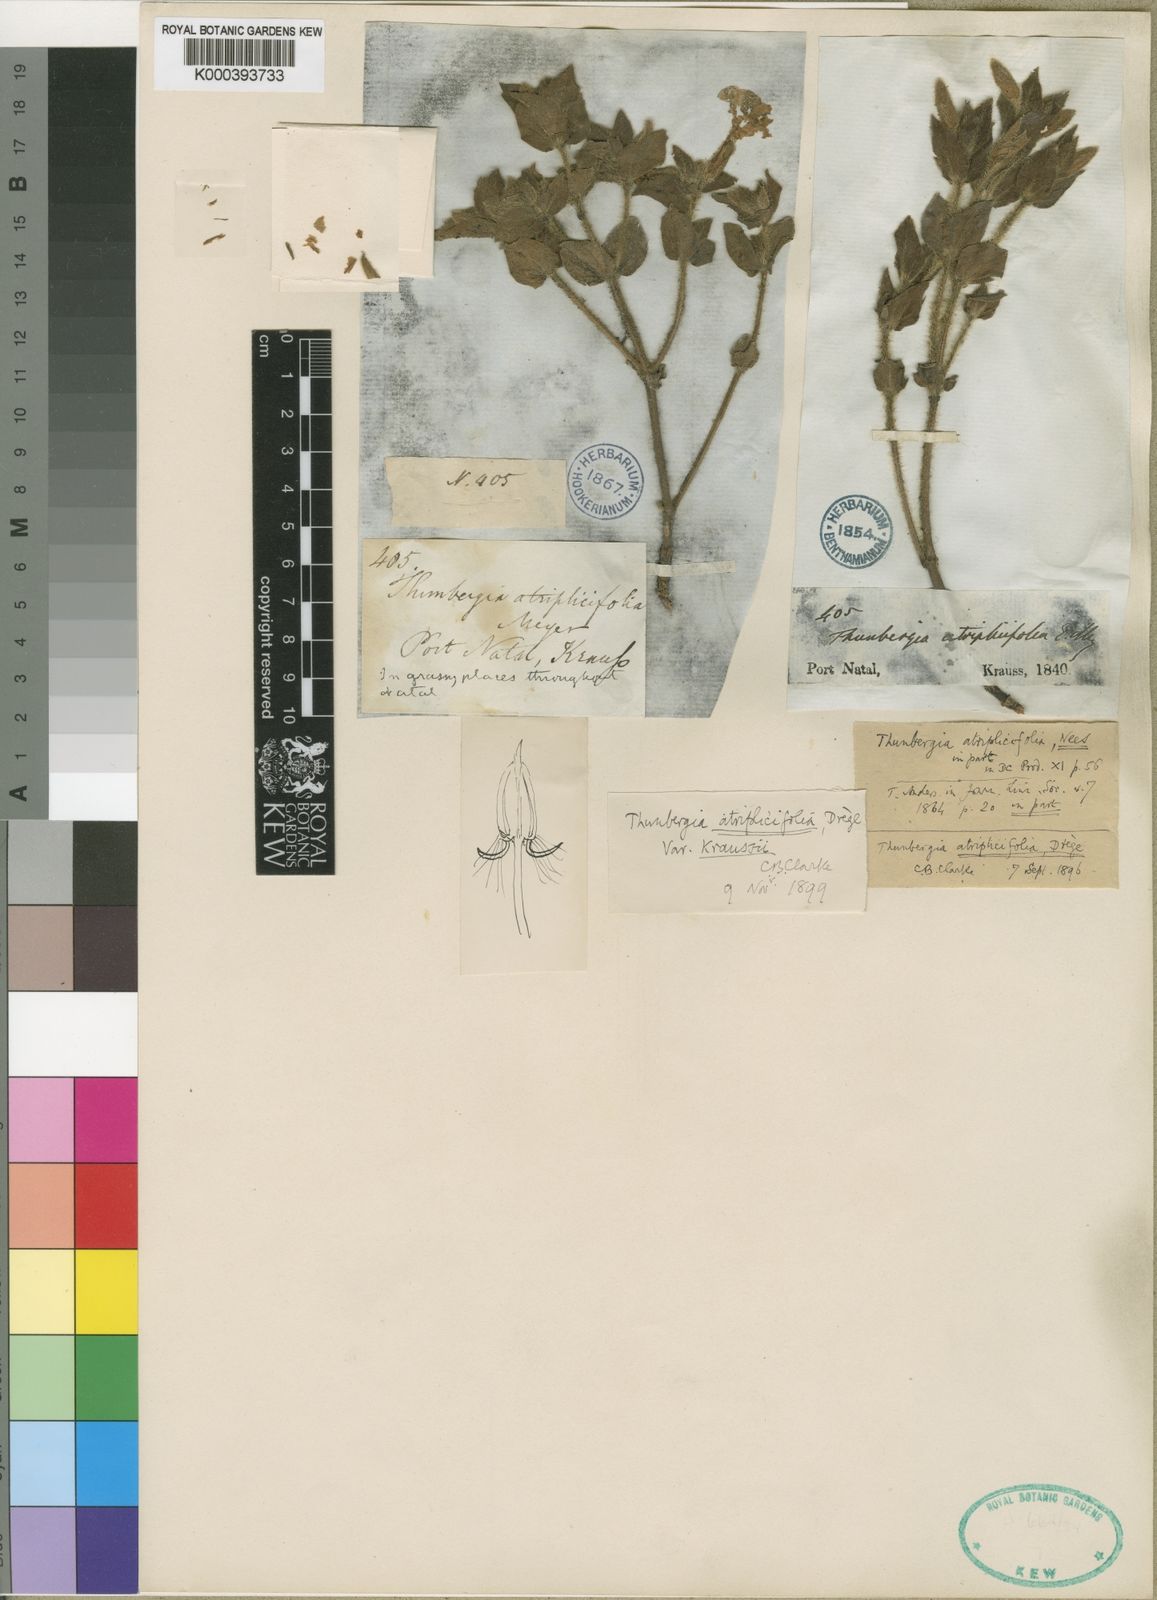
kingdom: Plantae
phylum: Tracheophyta
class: Magnoliopsida
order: Lamiales
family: Acanthaceae
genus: Thunbergia
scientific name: Thunbergia atriplicifolia
